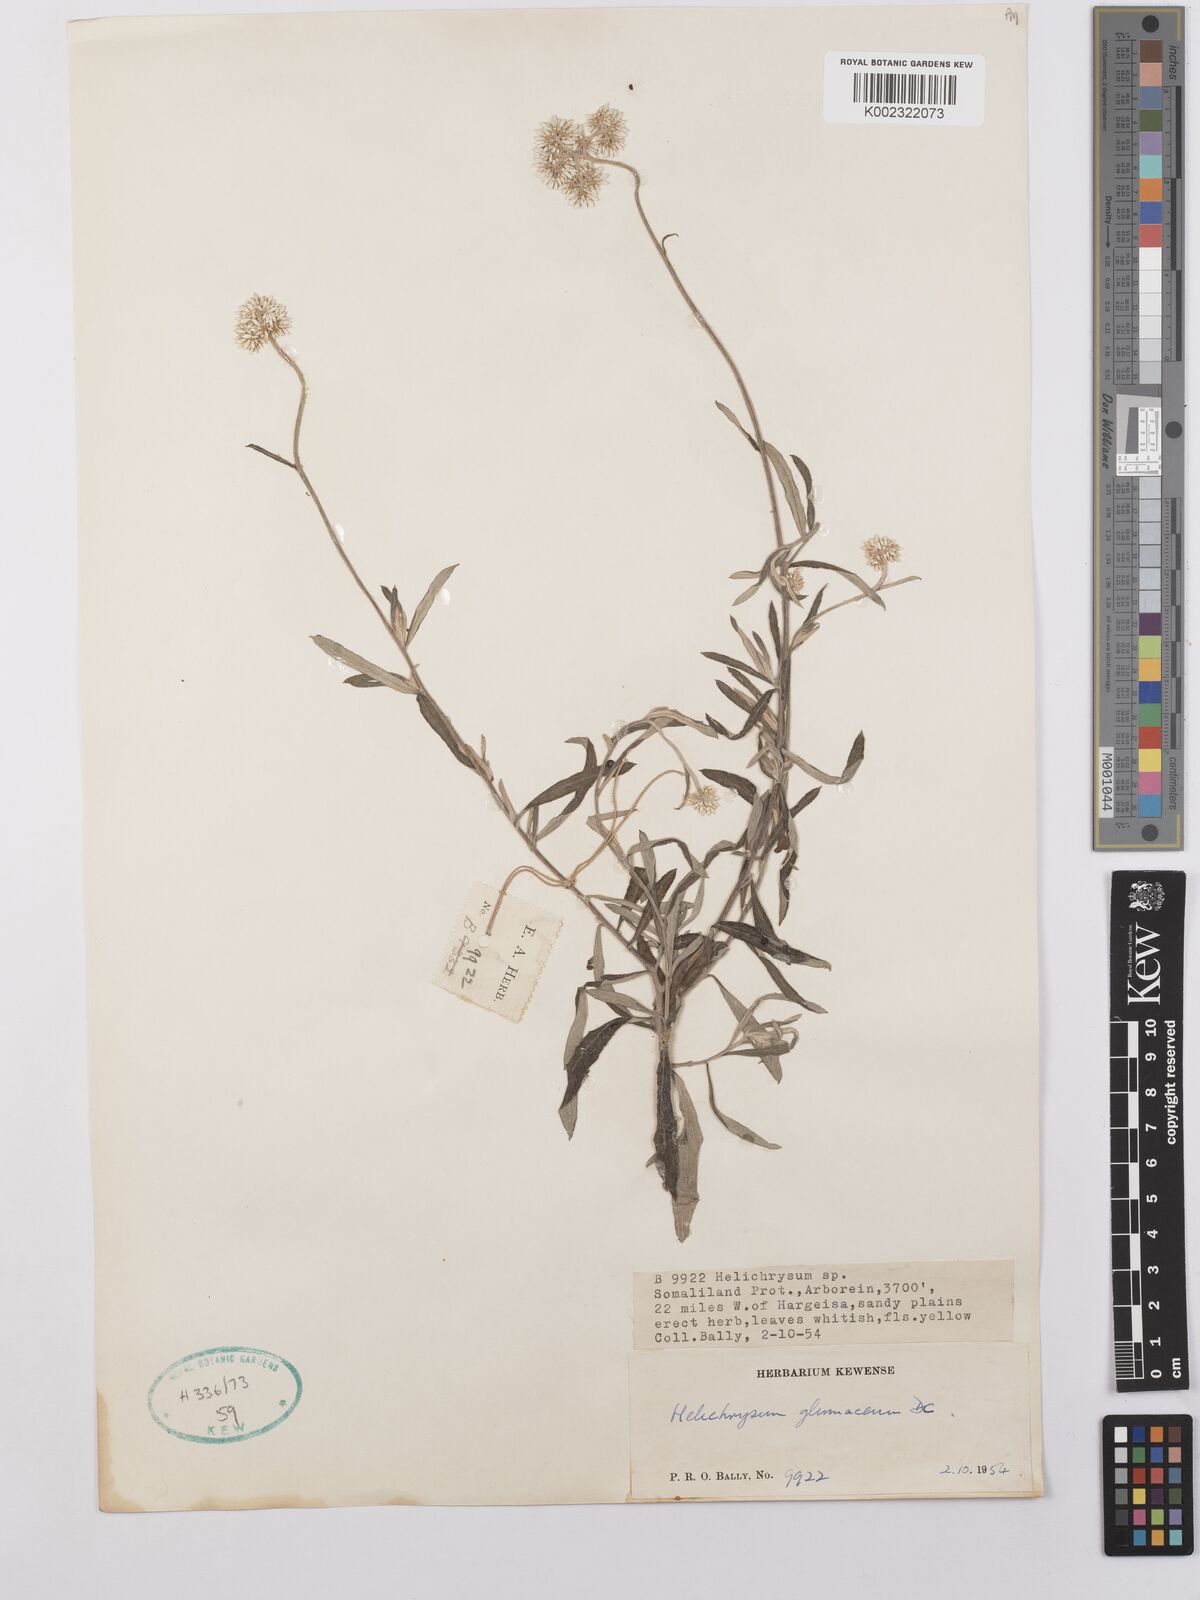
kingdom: Plantae
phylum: Tracheophyta
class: Magnoliopsida
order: Asterales
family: Asteraceae
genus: Helichrysum
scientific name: Helichrysum glumaceum
